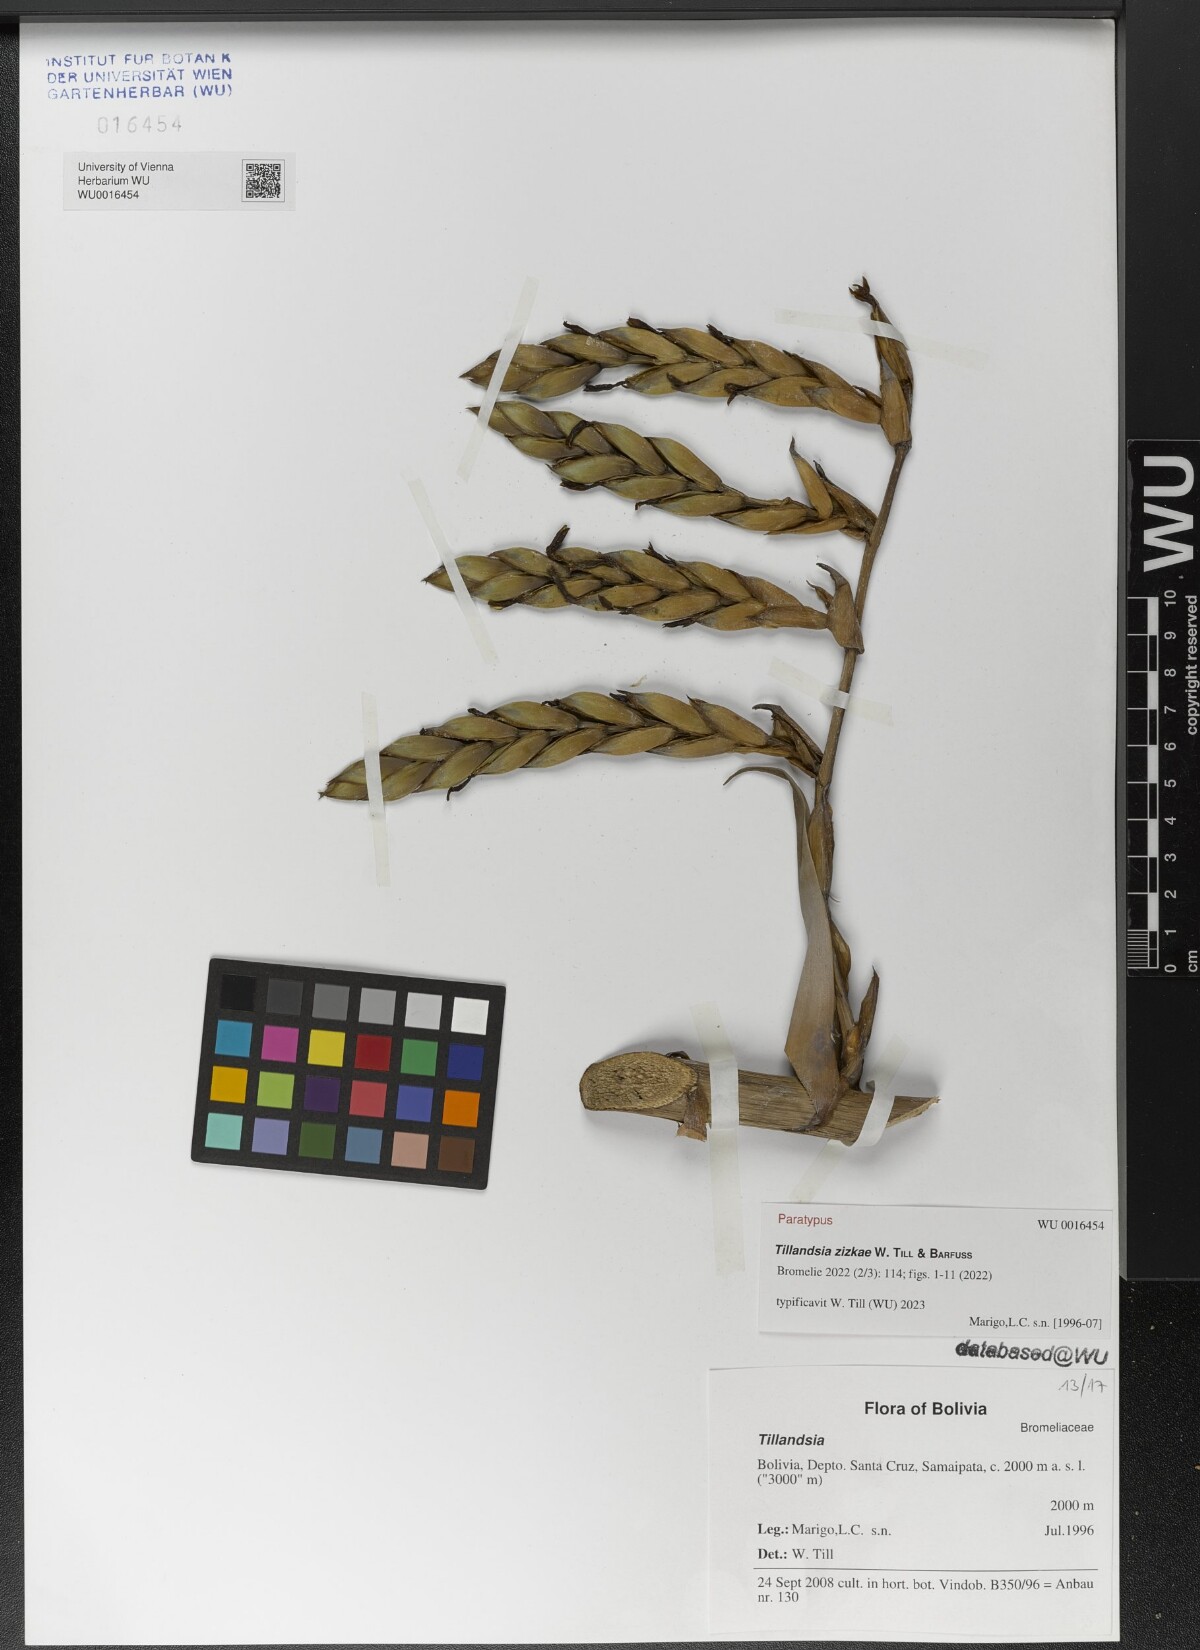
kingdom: Plantae
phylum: Tracheophyta
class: Liliopsida
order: Poales
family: Bromeliaceae
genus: Tillandsia
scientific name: Tillandsia
